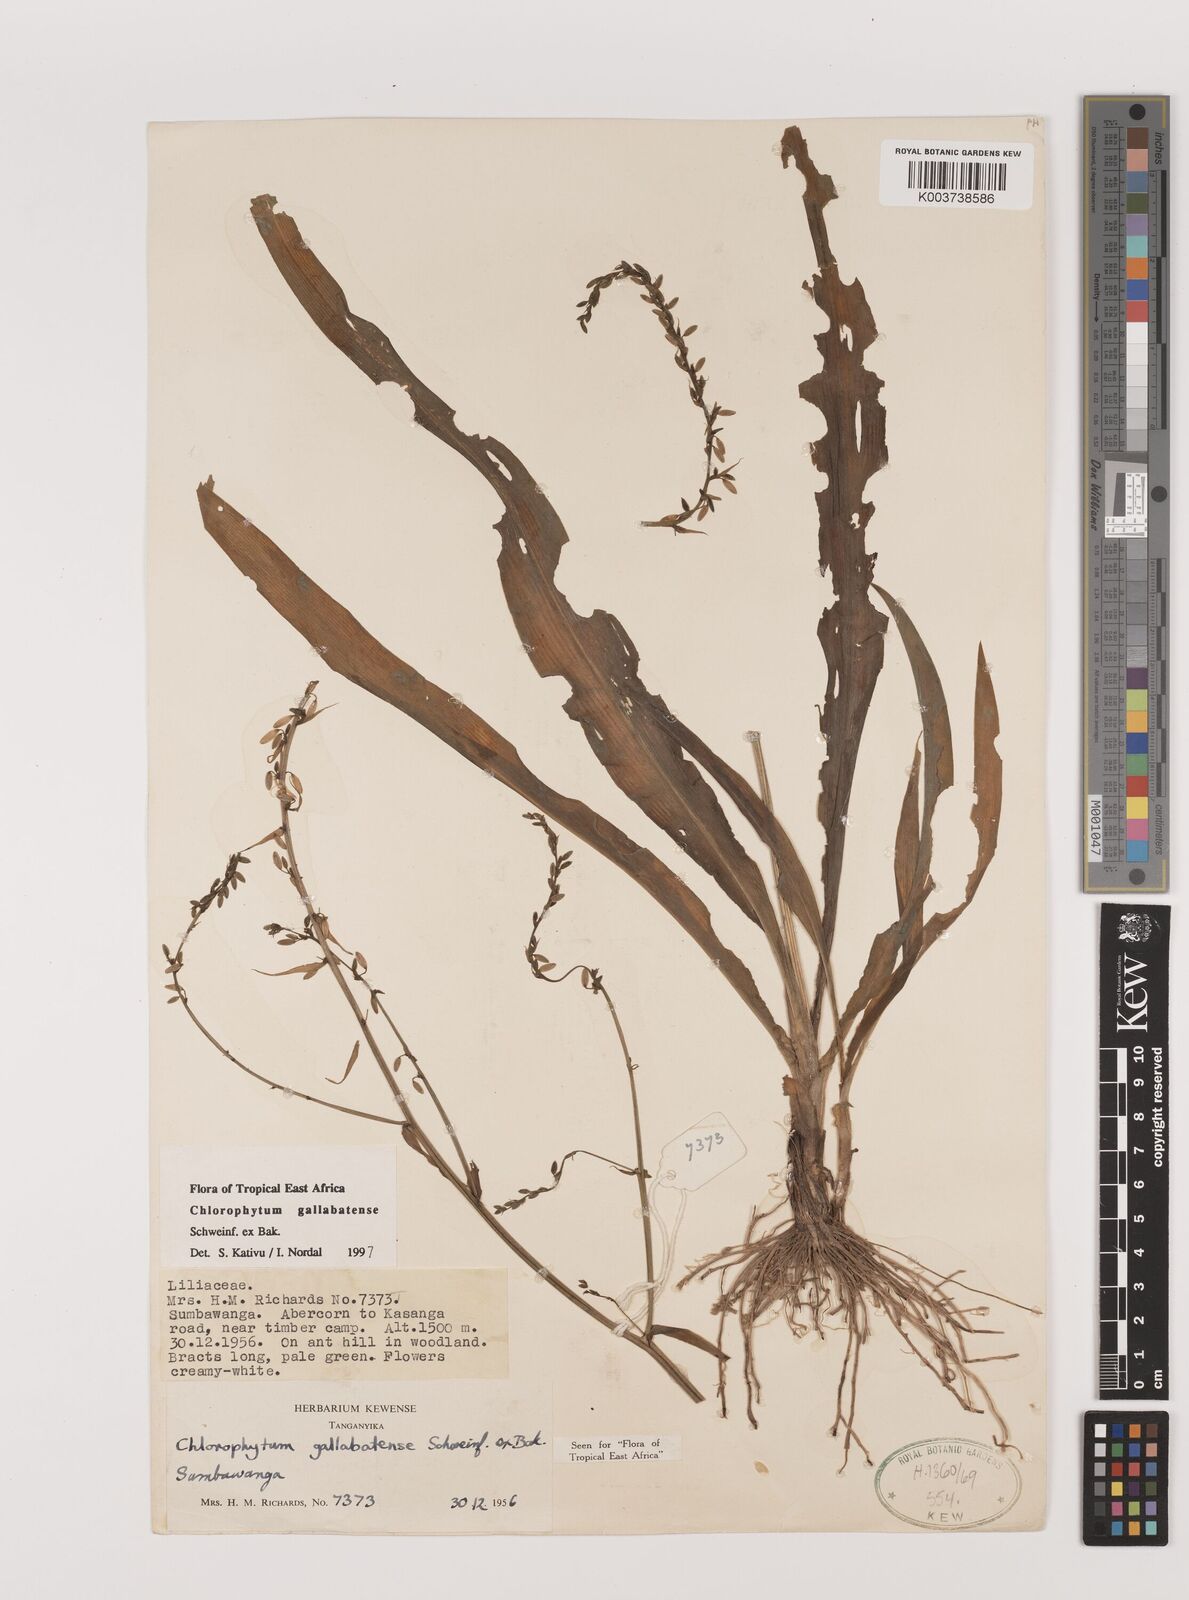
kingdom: Plantae
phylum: Tracheophyta
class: Liliopsida
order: Asparagales
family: Asparagaceae
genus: Chlorophytum
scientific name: Chlorophytum gallabatense
